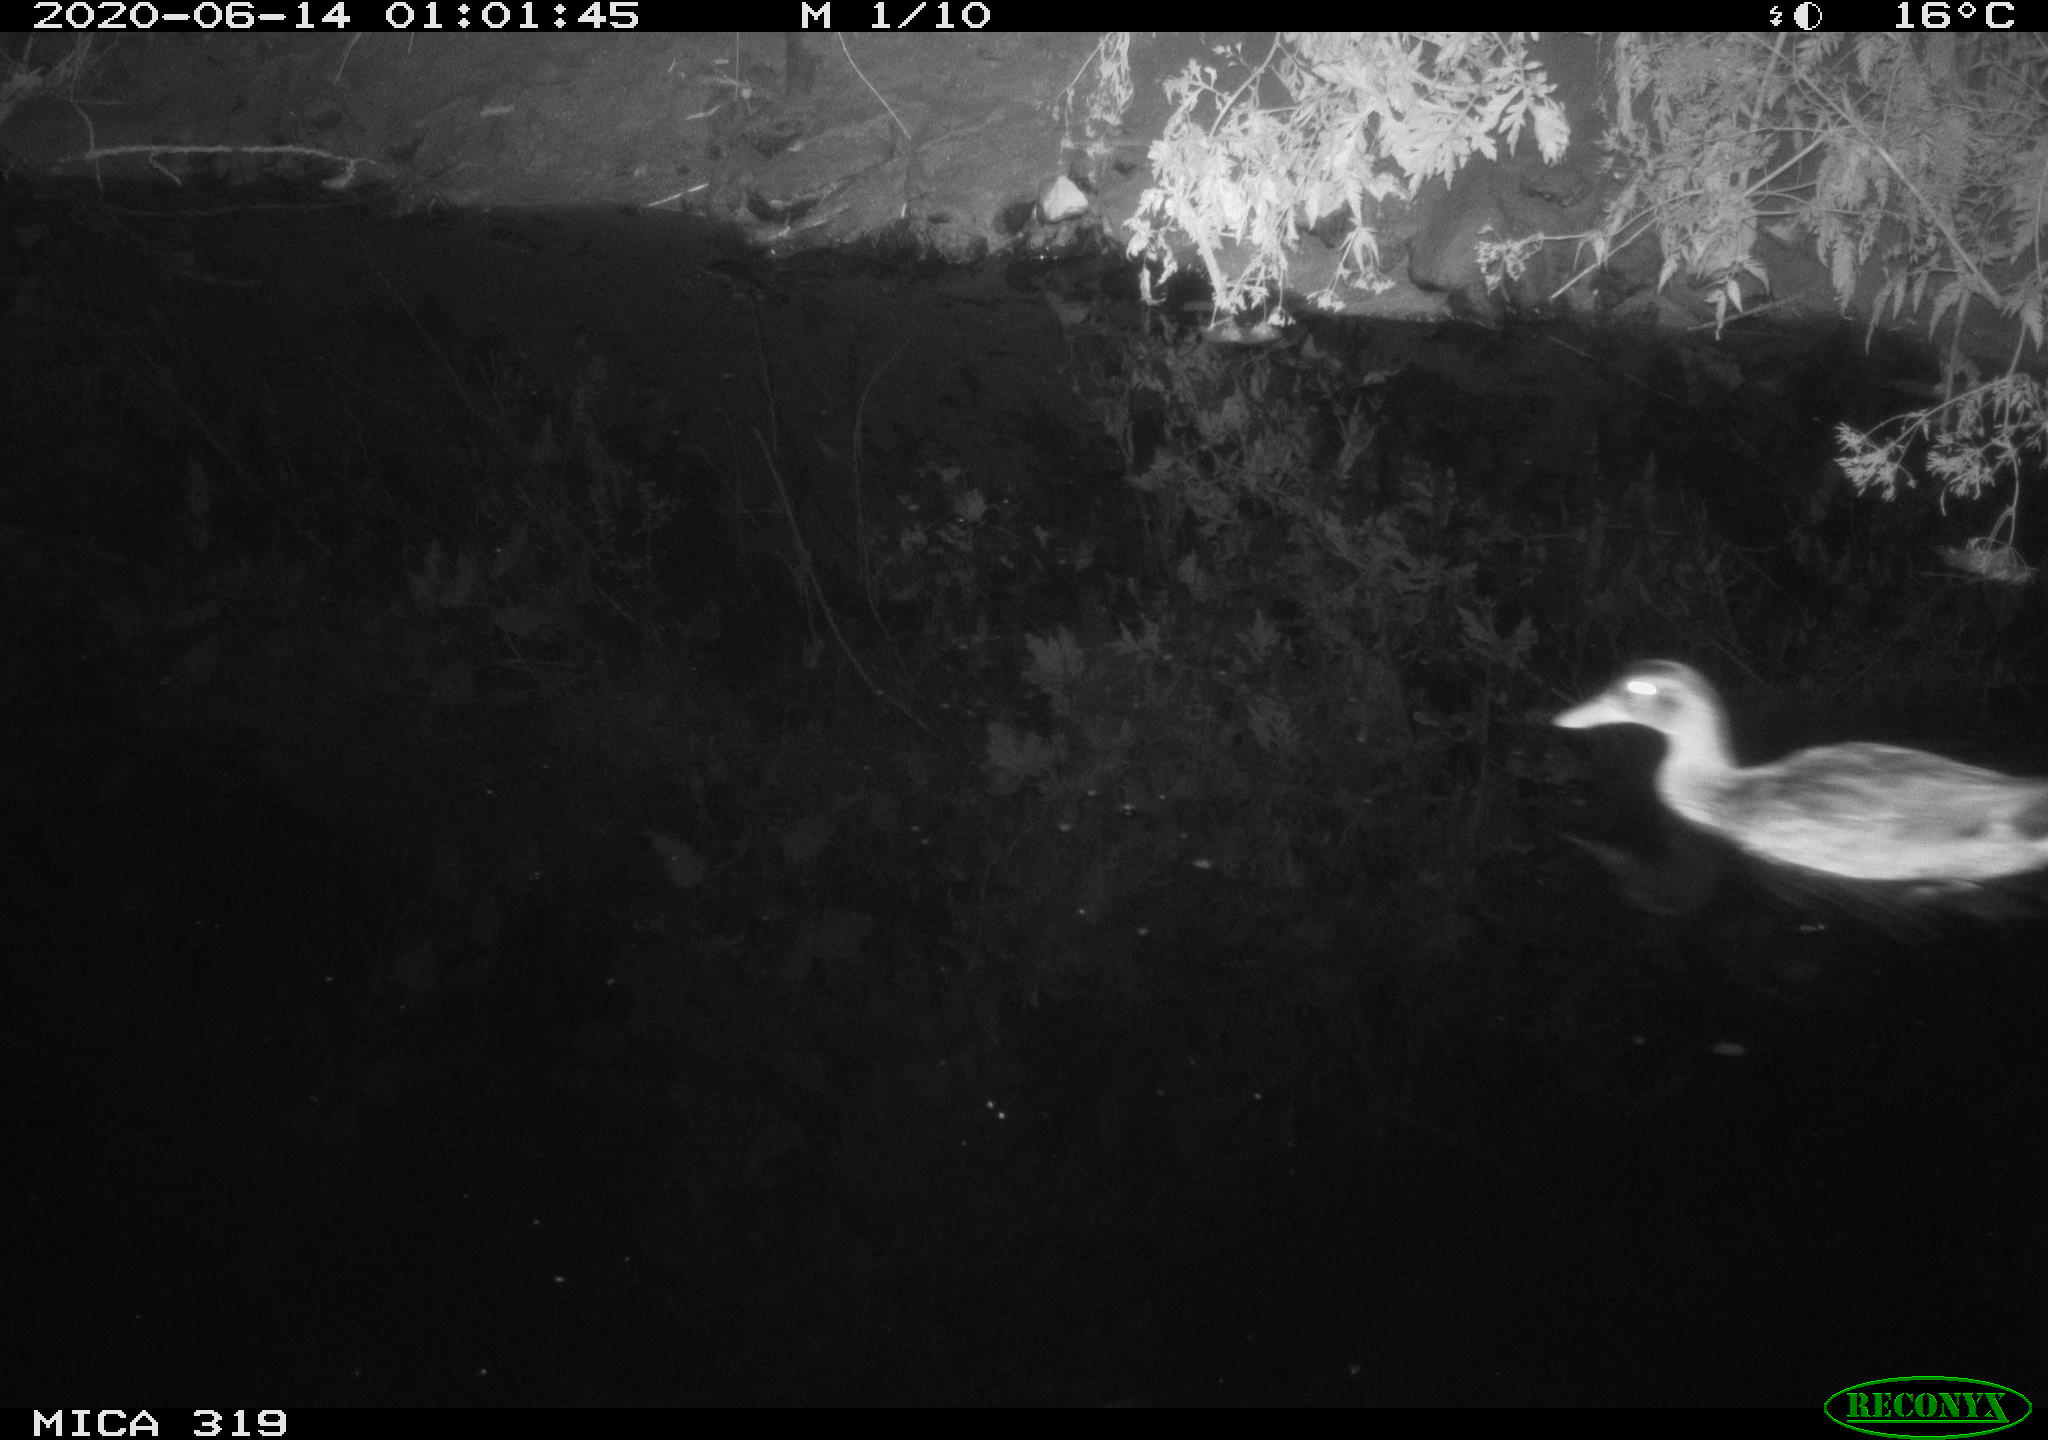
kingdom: Animalia
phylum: Chordata
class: Aves
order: Anseriformes
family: Anatidae
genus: Anas
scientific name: Anas platyrhynchos
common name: Mallard
